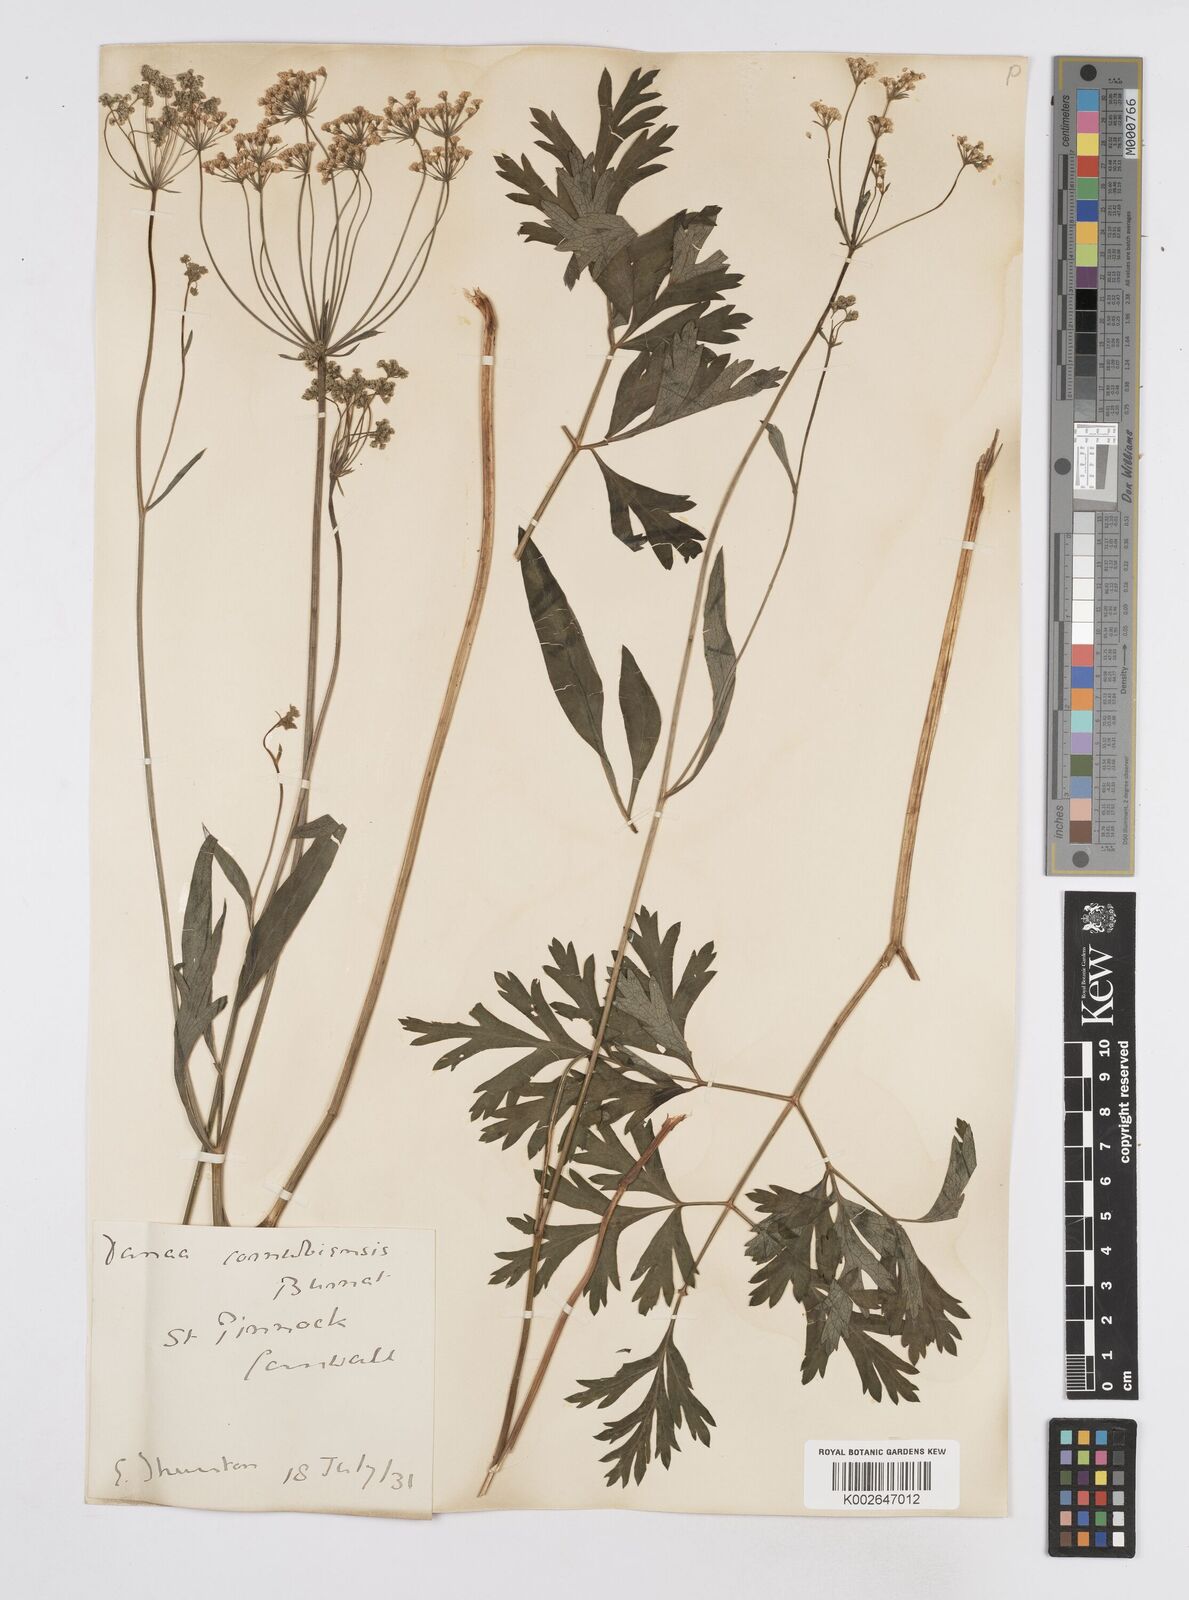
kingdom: Plantae
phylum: Tracheophyta
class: Magnoliopsida
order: Apiales
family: Apiaceae
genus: Physospermum
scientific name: Physospermum cornubiense
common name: Bladderseed
